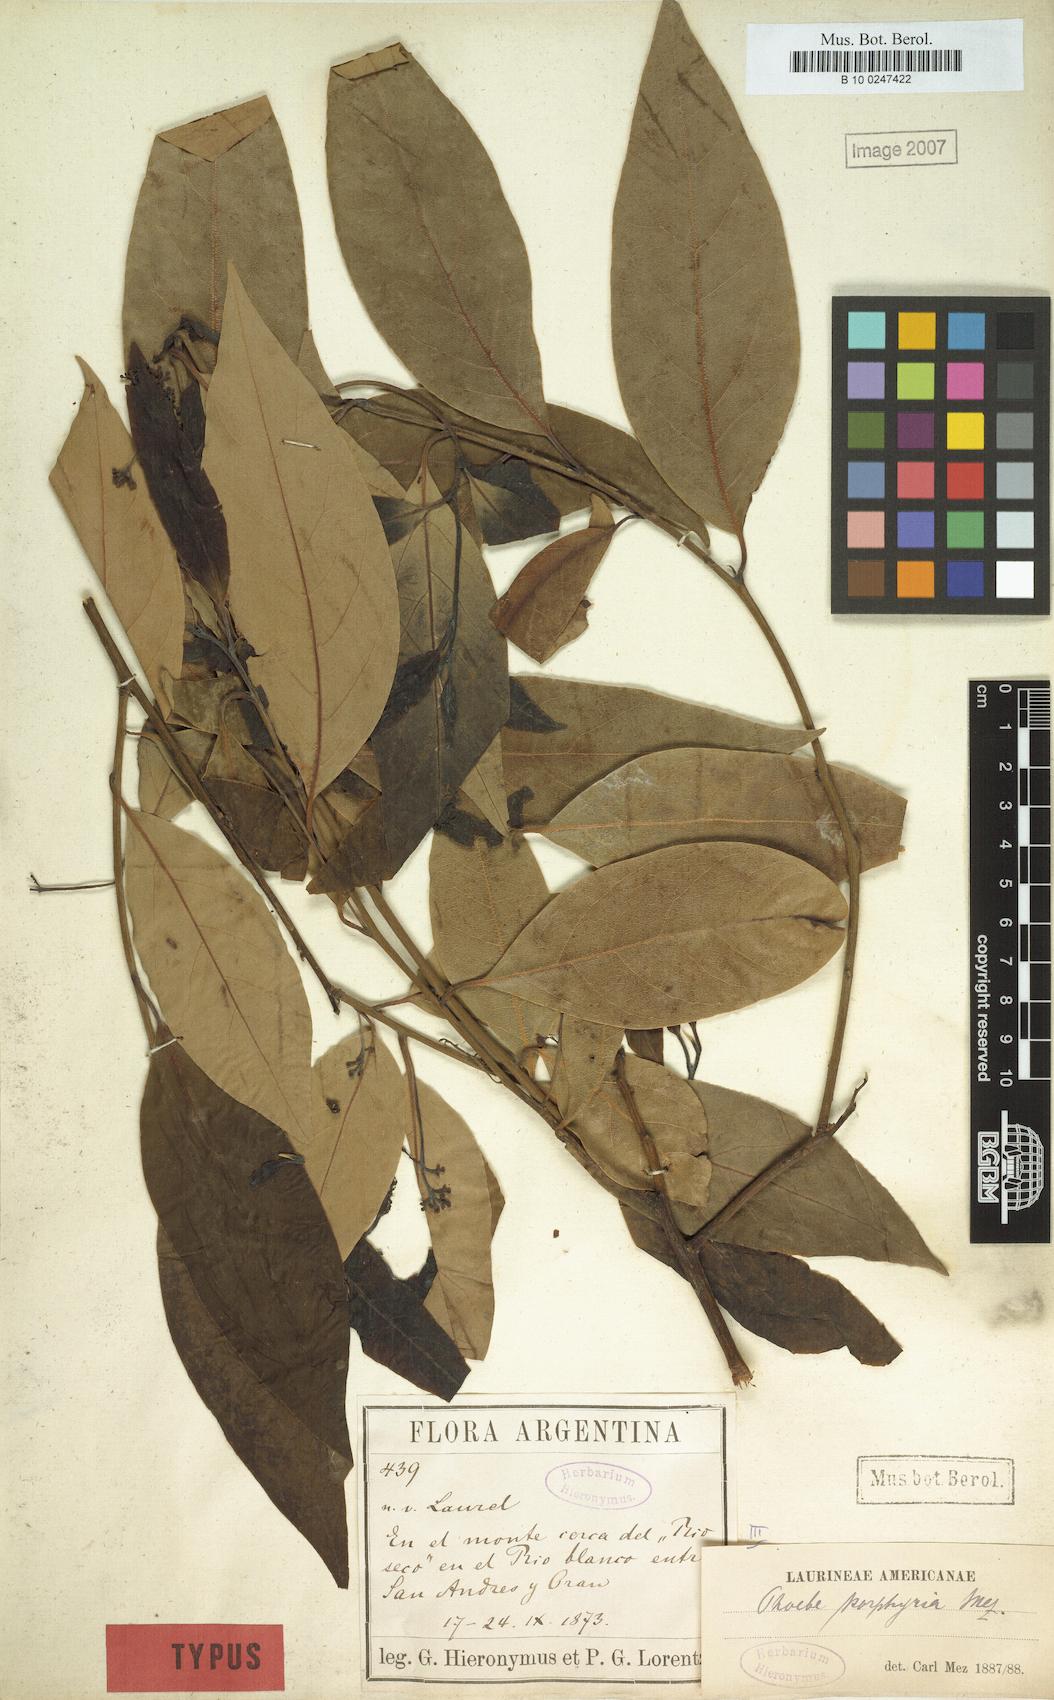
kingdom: Plantae
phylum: Tracheophyta
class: Magnoliopsida
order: Laurales
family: Lauraceae
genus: Ocotea
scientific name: Ocotea porphyria
